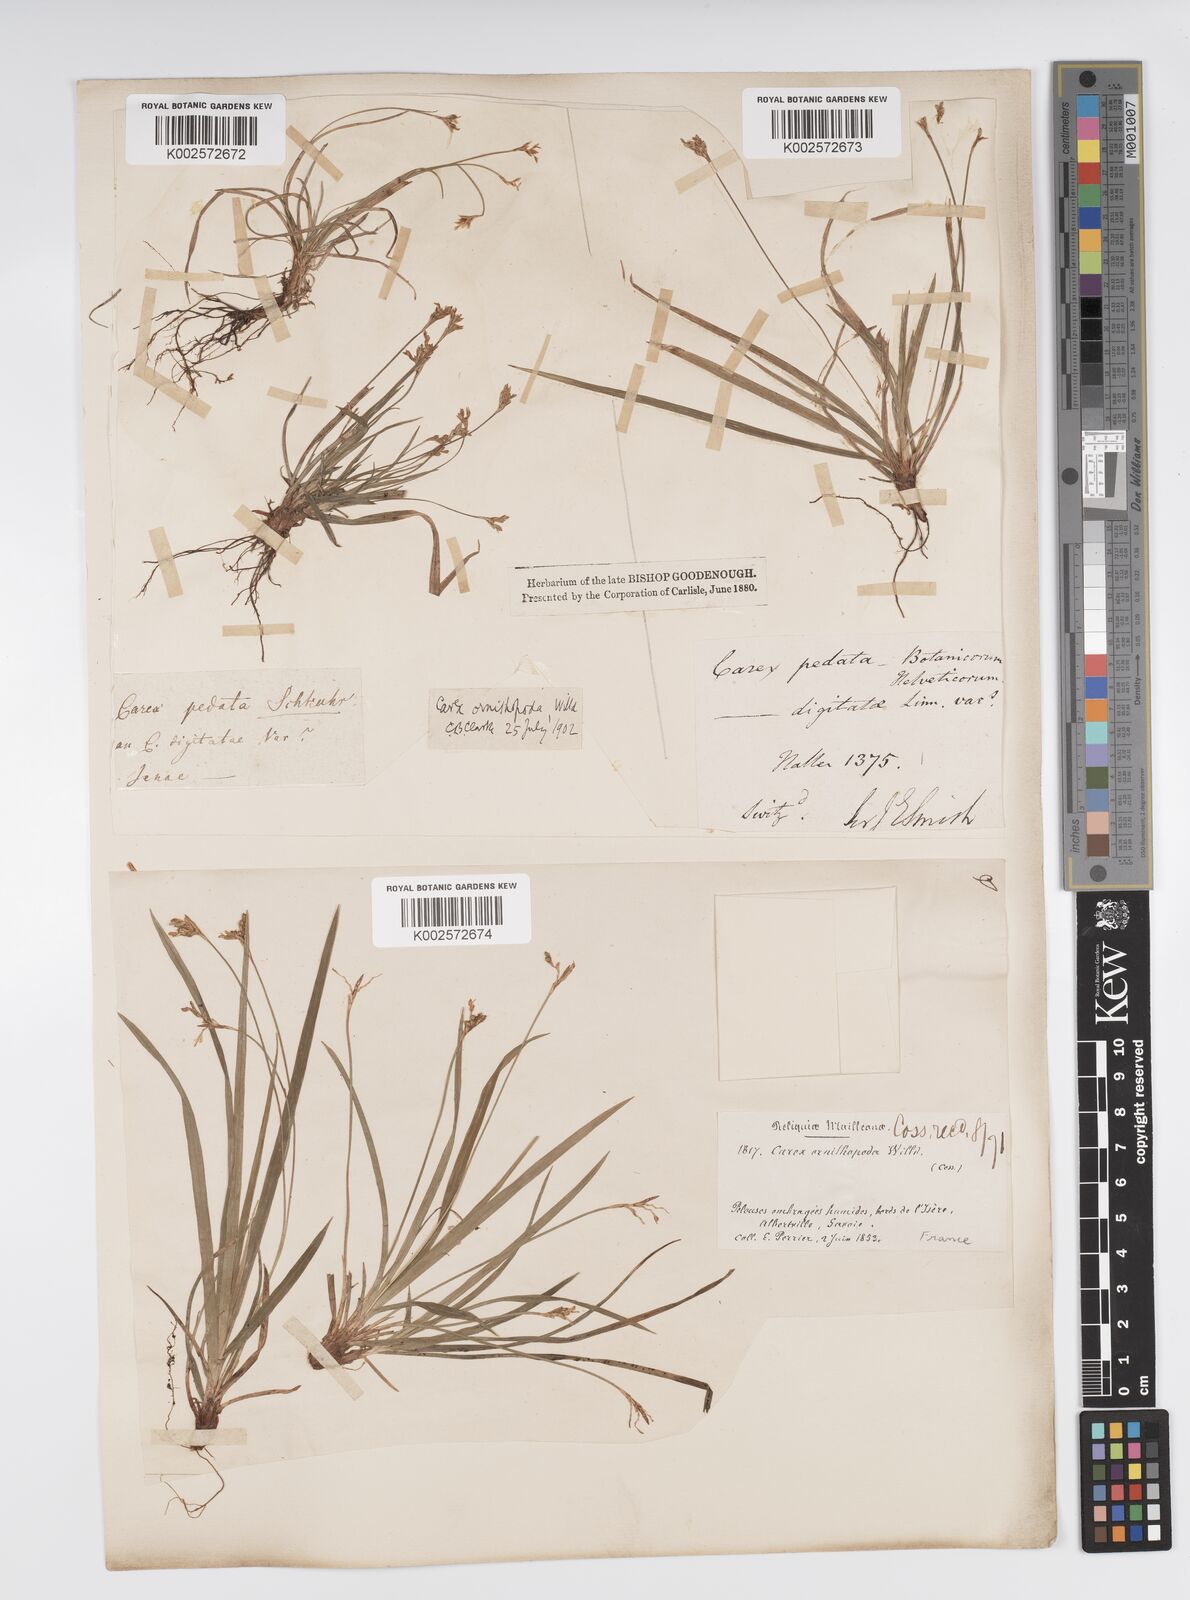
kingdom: Plantae
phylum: Tracheophyta
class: Liliopsida
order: Poales
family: Cyperaceae
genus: Carex
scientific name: Carex ornithopoda
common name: Bird's-foot sedge
